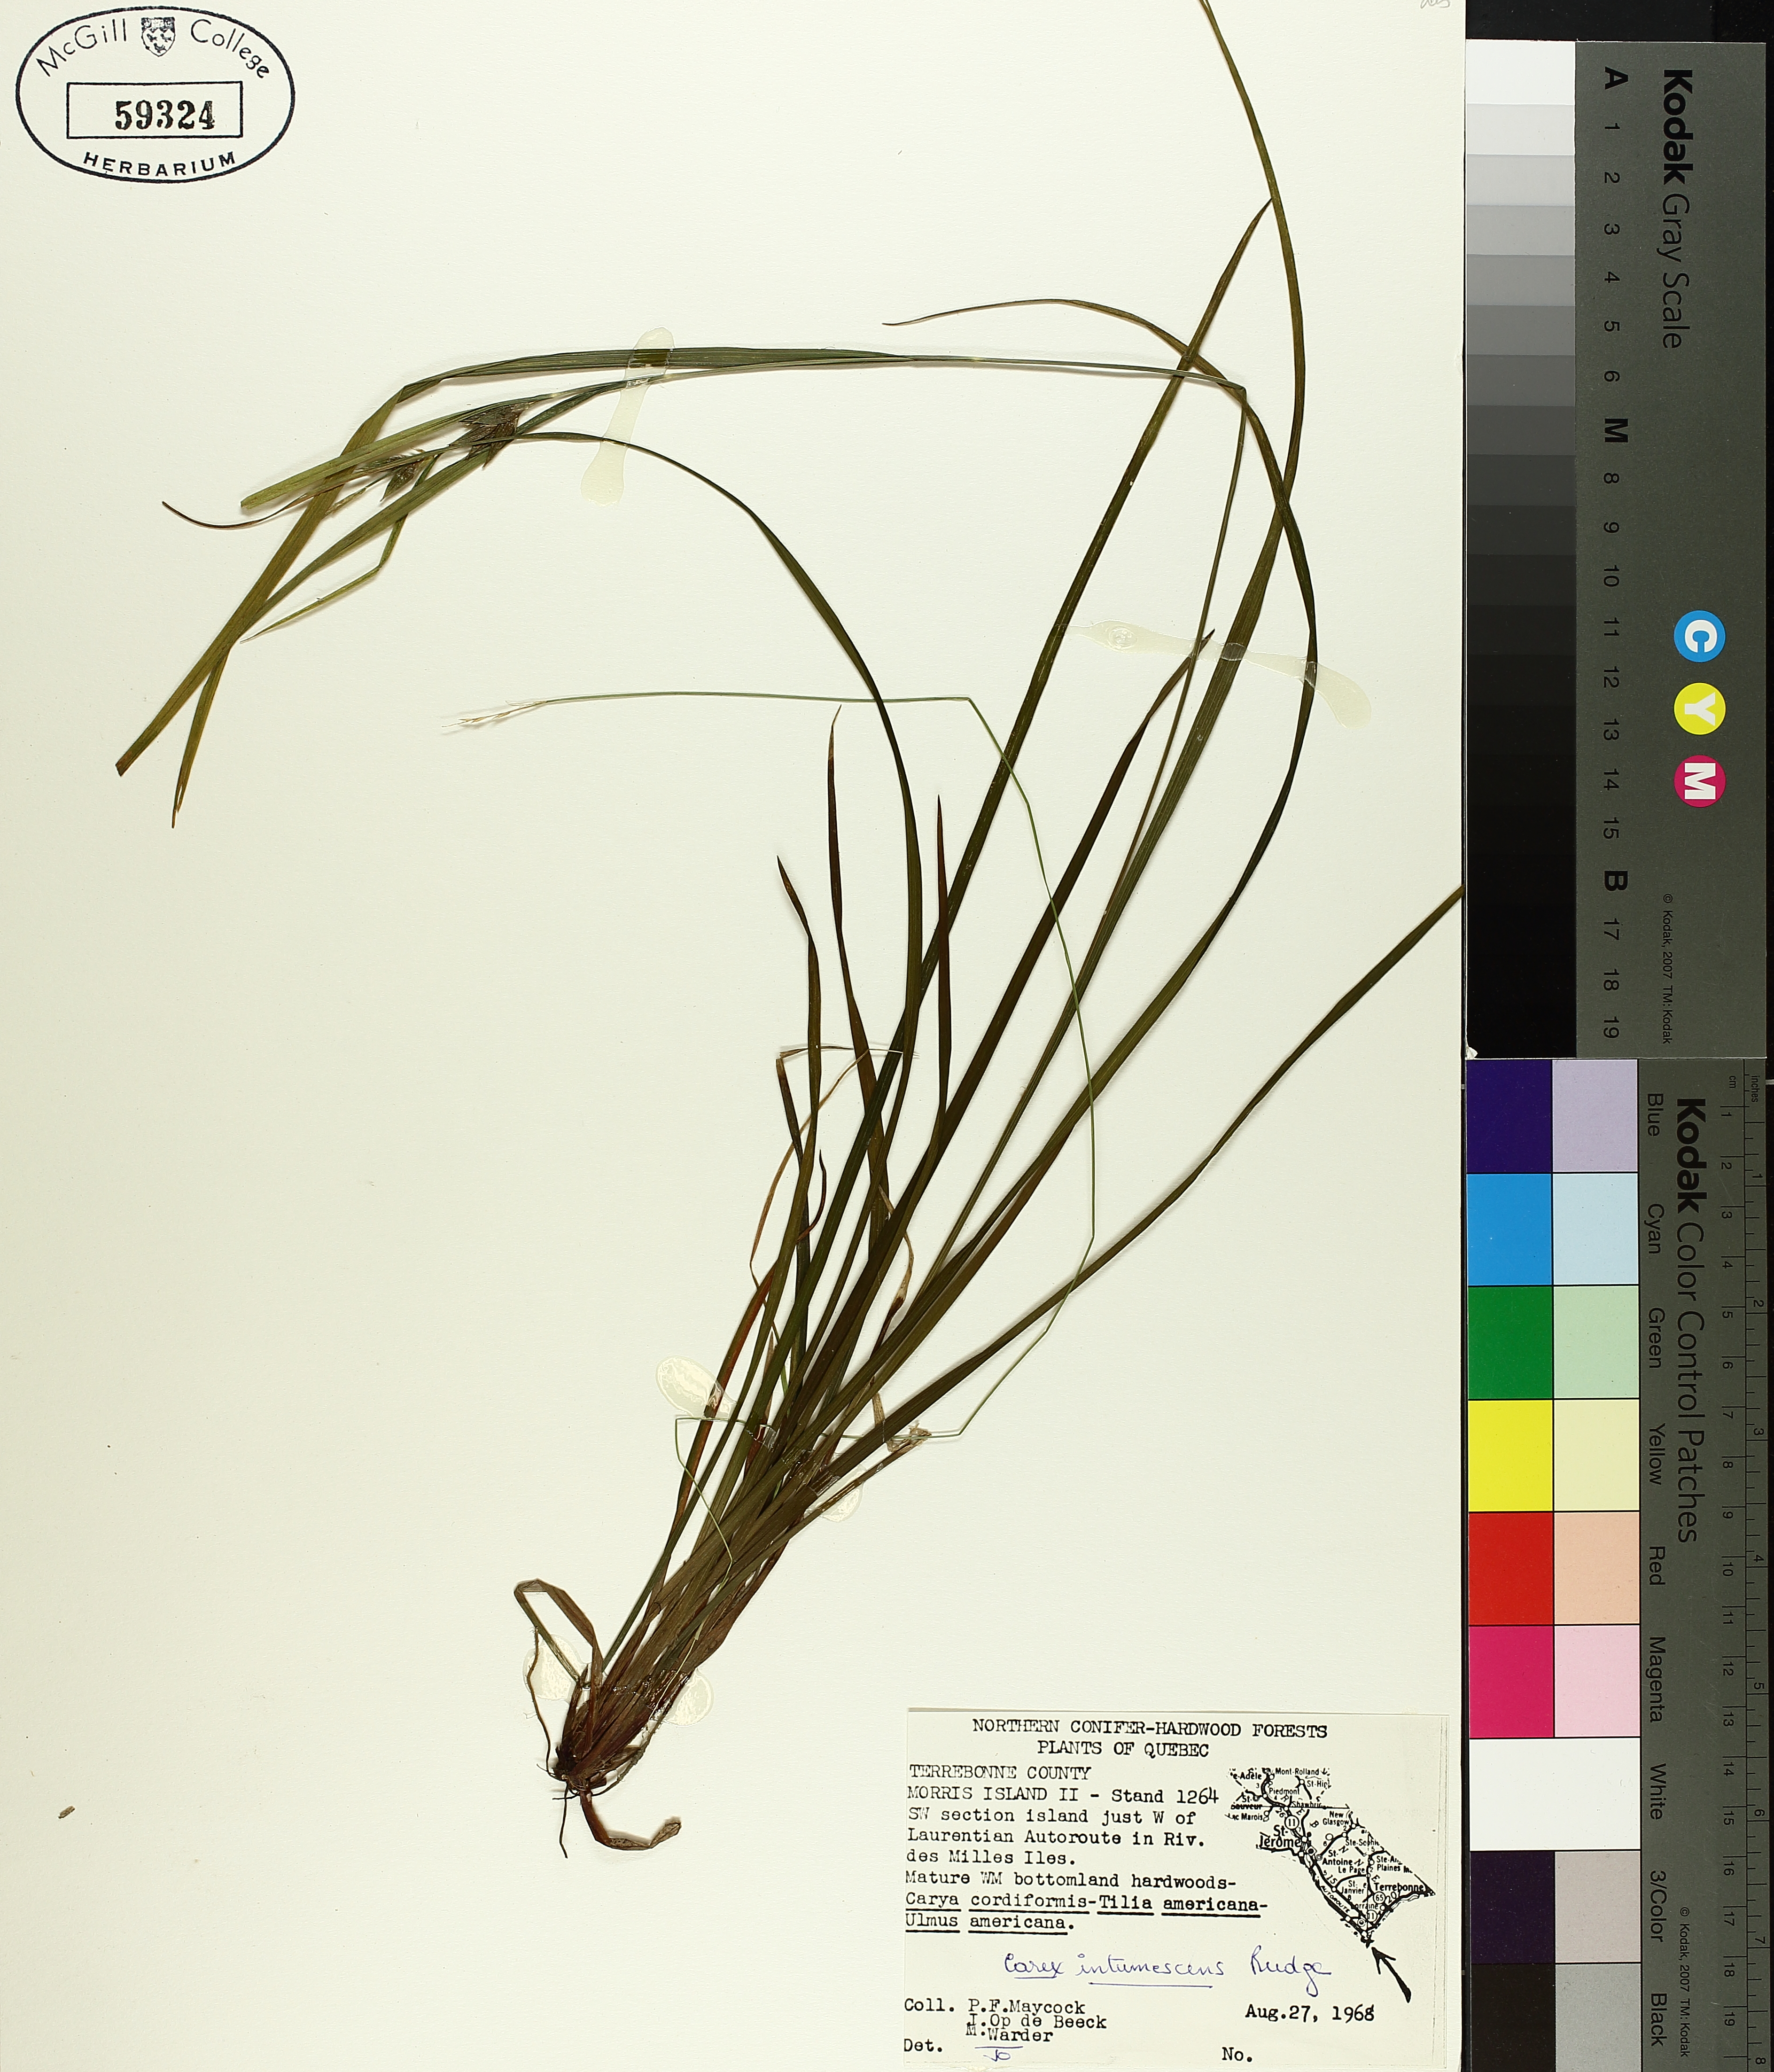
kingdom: Plantae
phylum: Tracheophyta
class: Liliopsida
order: Poales
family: Cyperaceae
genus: Carex
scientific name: Carex intumescens
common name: Greater bladder sedge
